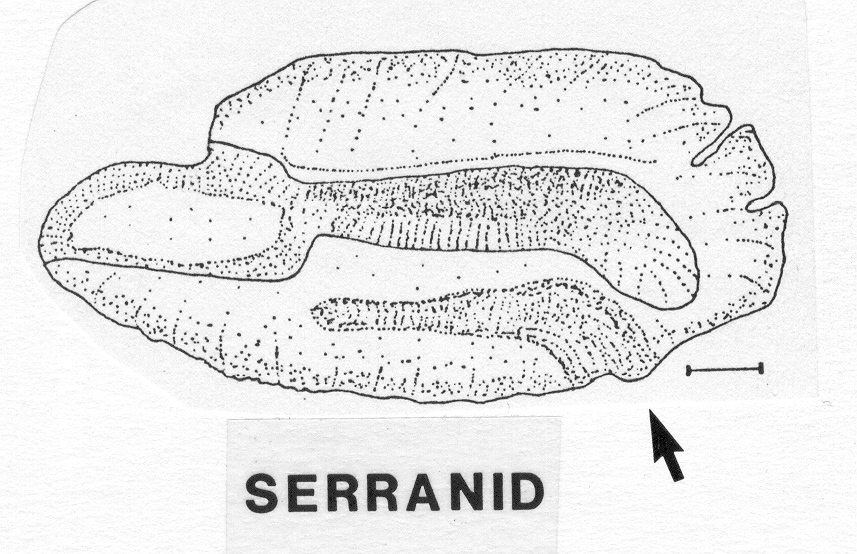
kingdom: Animalia
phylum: Chordata
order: Perciformes
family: Serranidae
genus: Cephalopholis
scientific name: Cephalopholis miniata
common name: Coral hind
